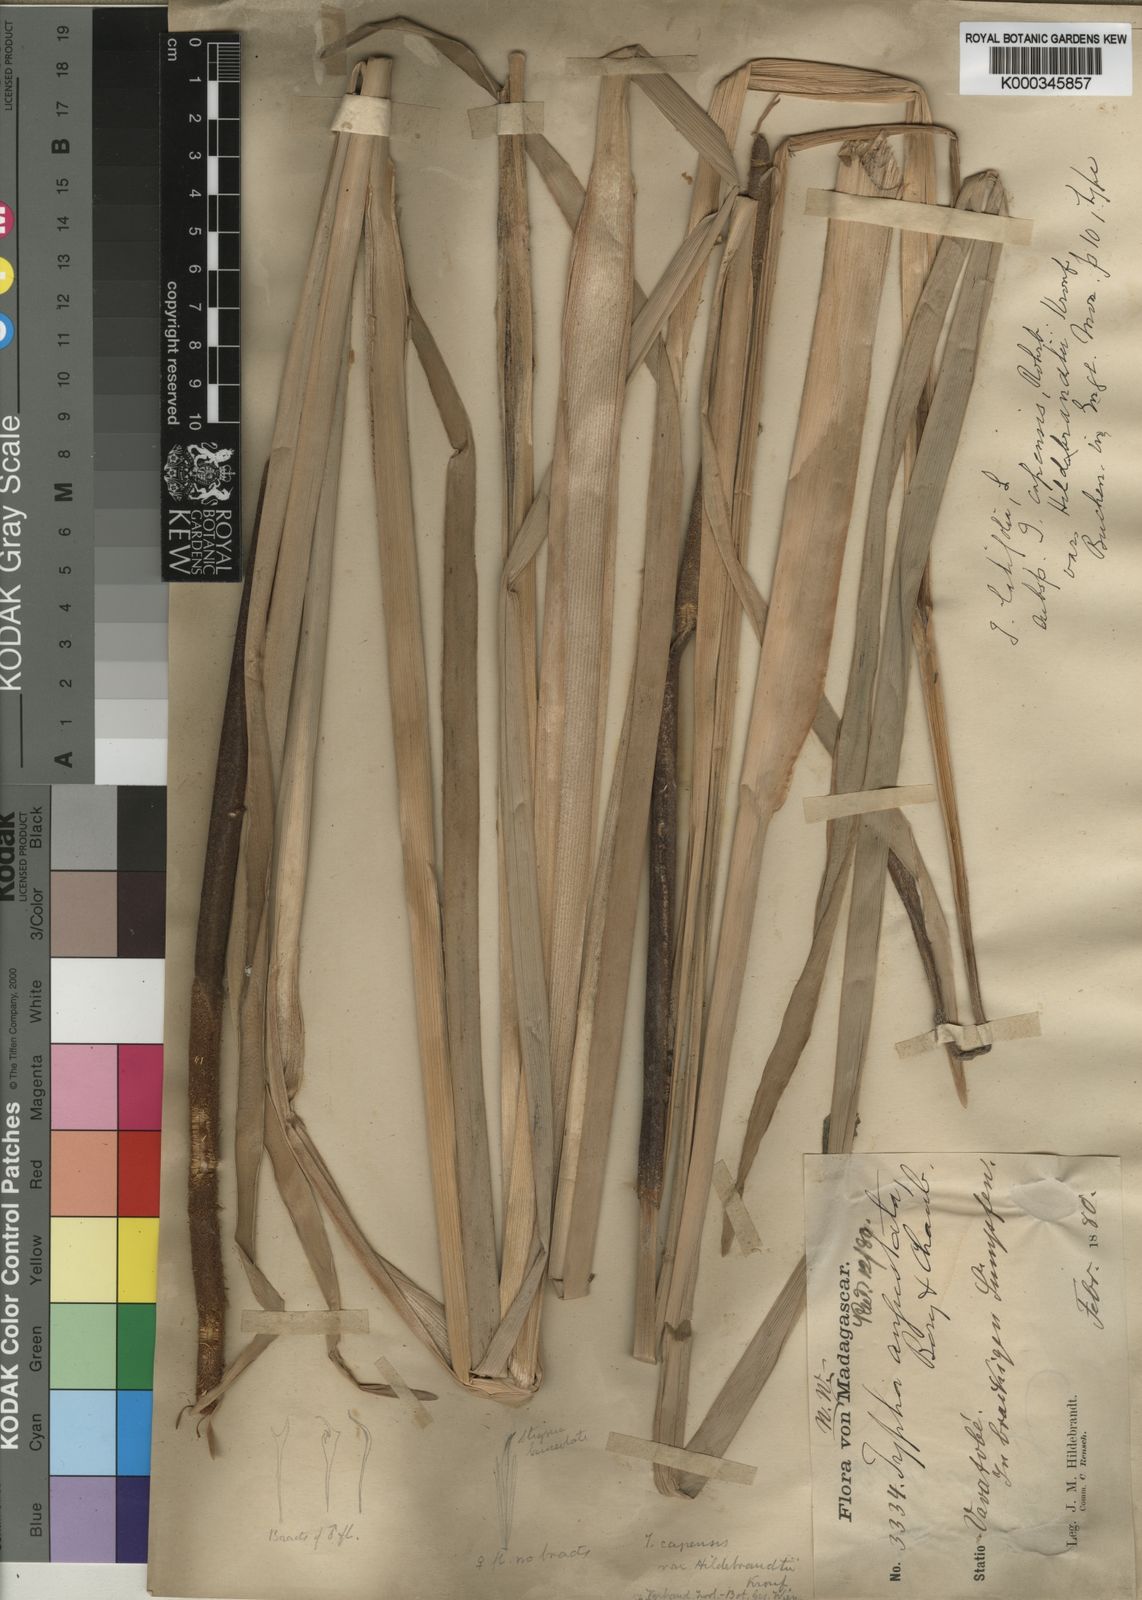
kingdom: Plantae
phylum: Tracheophyta
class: Liliopsida
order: Poales
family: Typhaceae
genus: Typha
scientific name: Typha capensis
